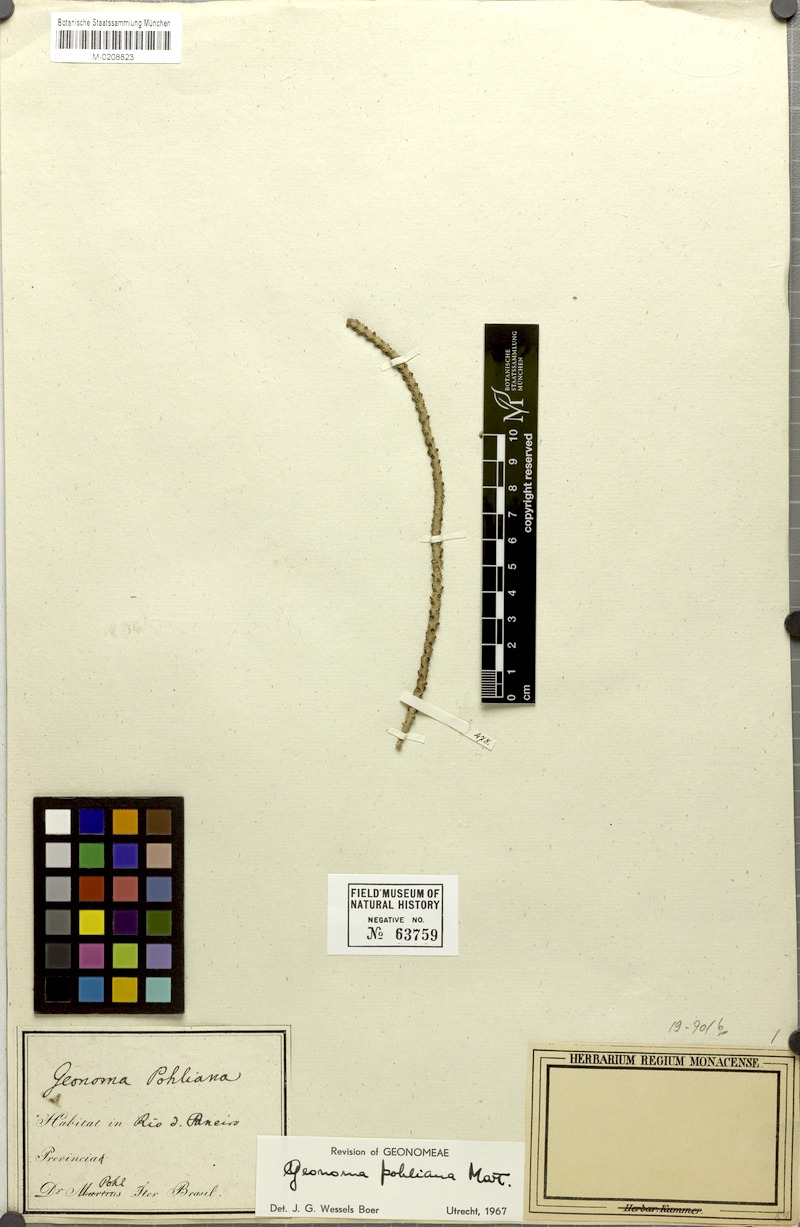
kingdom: Plantae
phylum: Tracheophyta
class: Liliopsida
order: Arecales
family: Arecaceae
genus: Geonoma
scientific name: Geonoma pohliana
